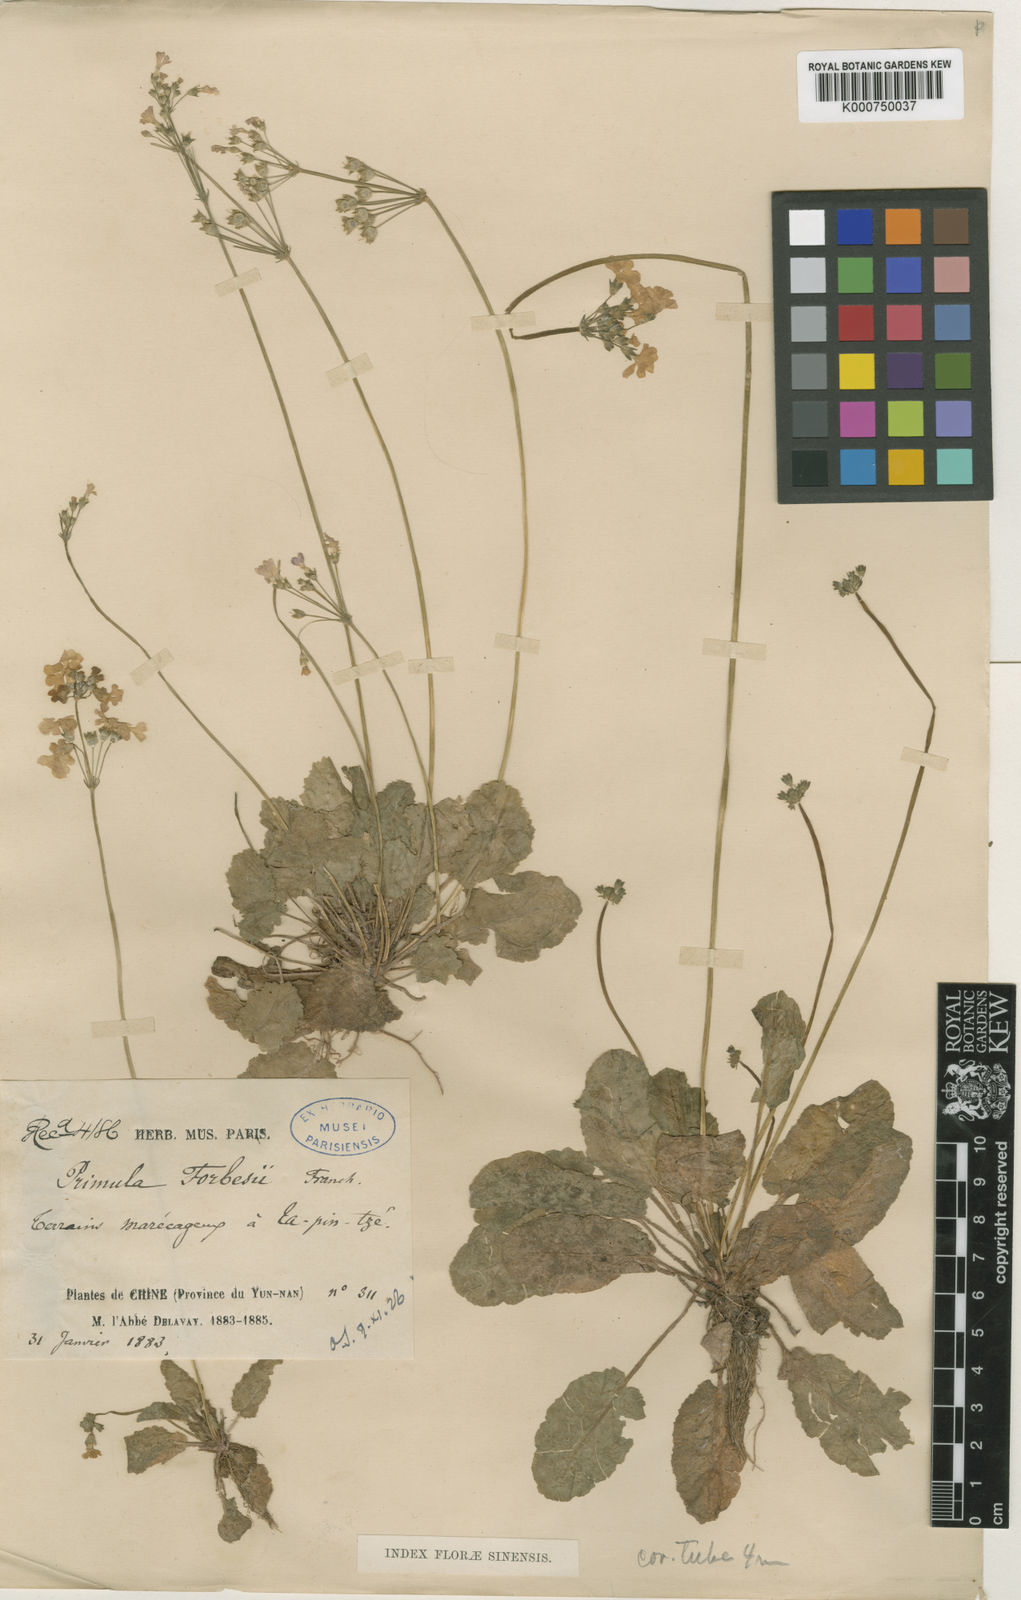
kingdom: Plantae
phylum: Tracheophyta
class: Magnoliopsida
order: Ericales
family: Primulaceae
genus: Primula
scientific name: Primula filipes
